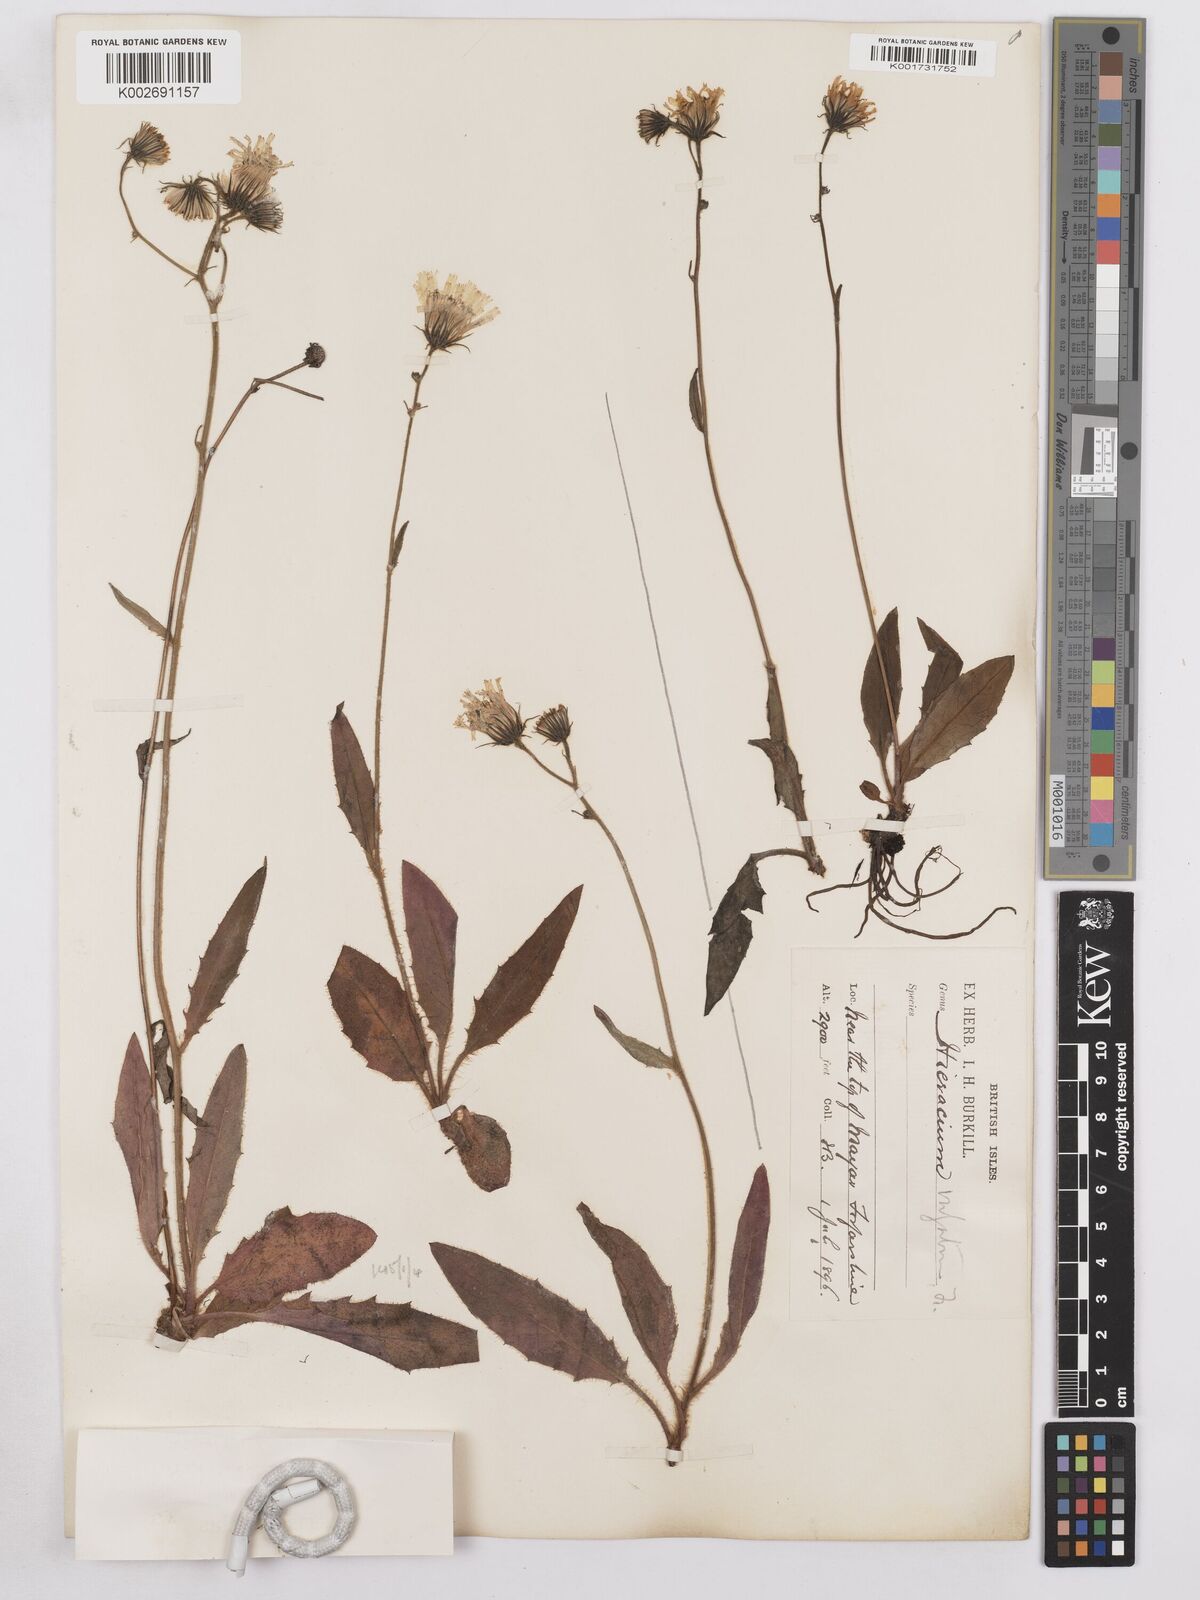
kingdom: Plantae
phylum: Tracheophyta
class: Magnoliopsida
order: Asterales
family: Asteraceae
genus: Hieracium
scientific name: Hieracium lachenalii
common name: Common hawkweed
